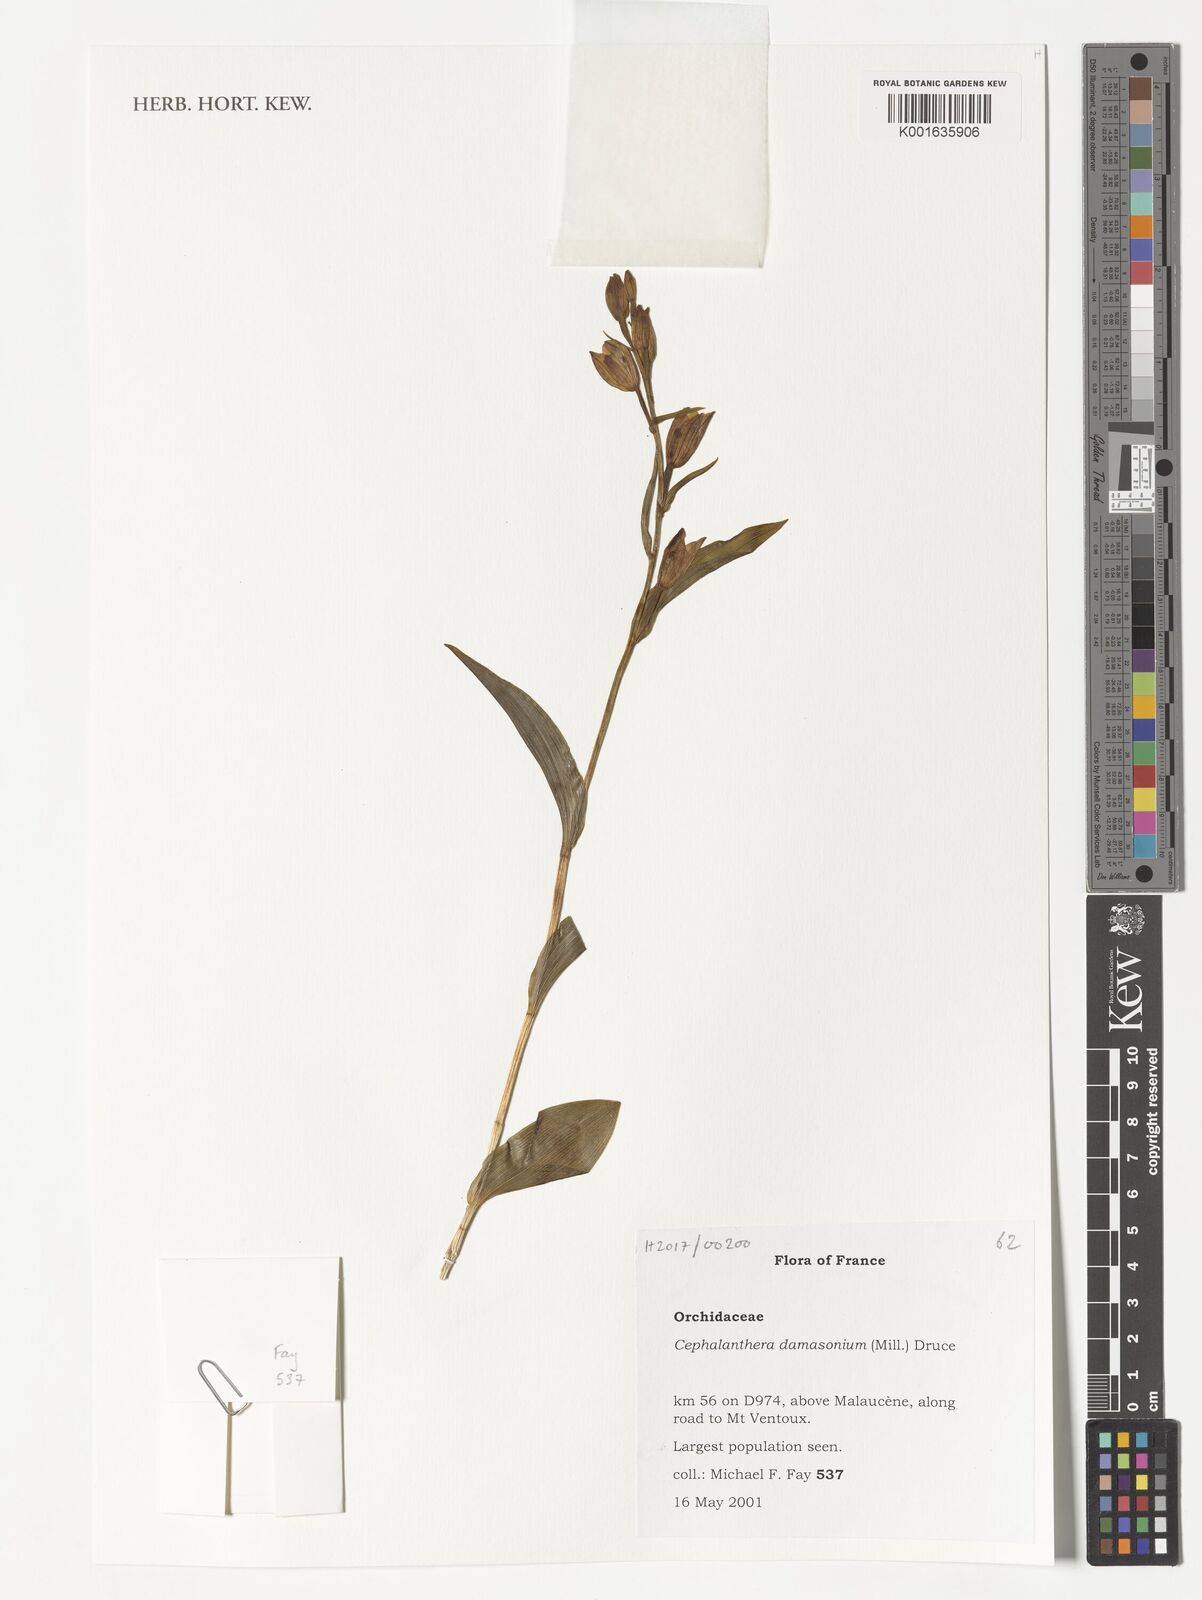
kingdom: Plantae
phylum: Tracheophyta
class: Liliopsida
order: Asparagales
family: Orchidaceae
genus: Cephalanthera
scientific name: Cephalanthera damasonium
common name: White helleborine
